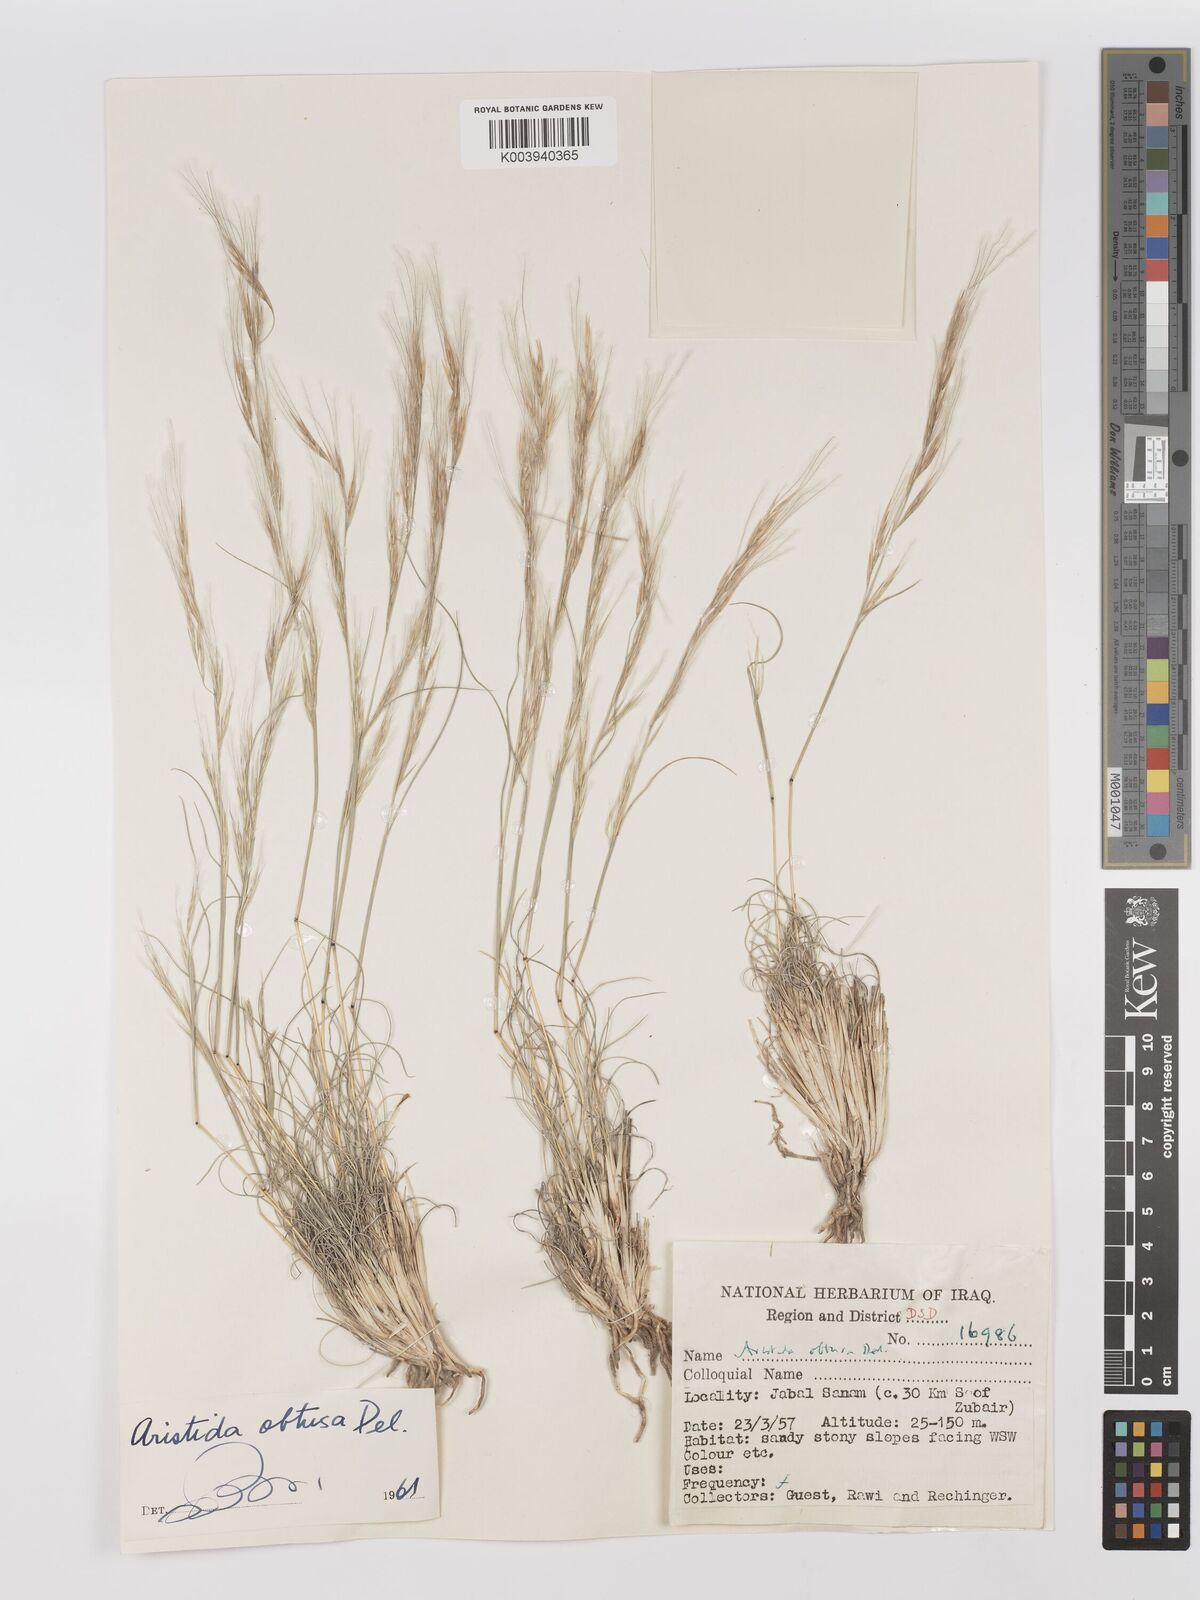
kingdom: Plantae
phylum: Tracheophyta
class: Liliopsida
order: Poales
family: Poaceae
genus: Stipagrostis
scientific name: Stipagrostis obtusa
